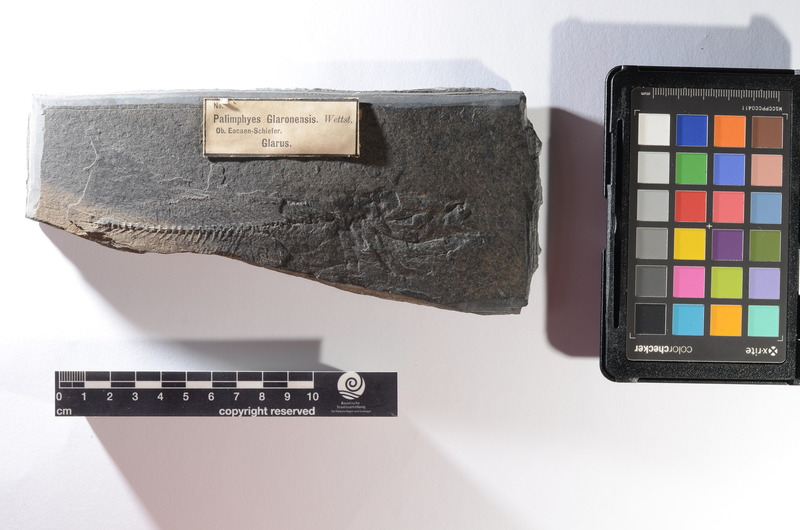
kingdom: Animalia
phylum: Chordata
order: Perciformes
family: Euzaphlegidae
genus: Palimphyes
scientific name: Palimphyes Clupea elongata
